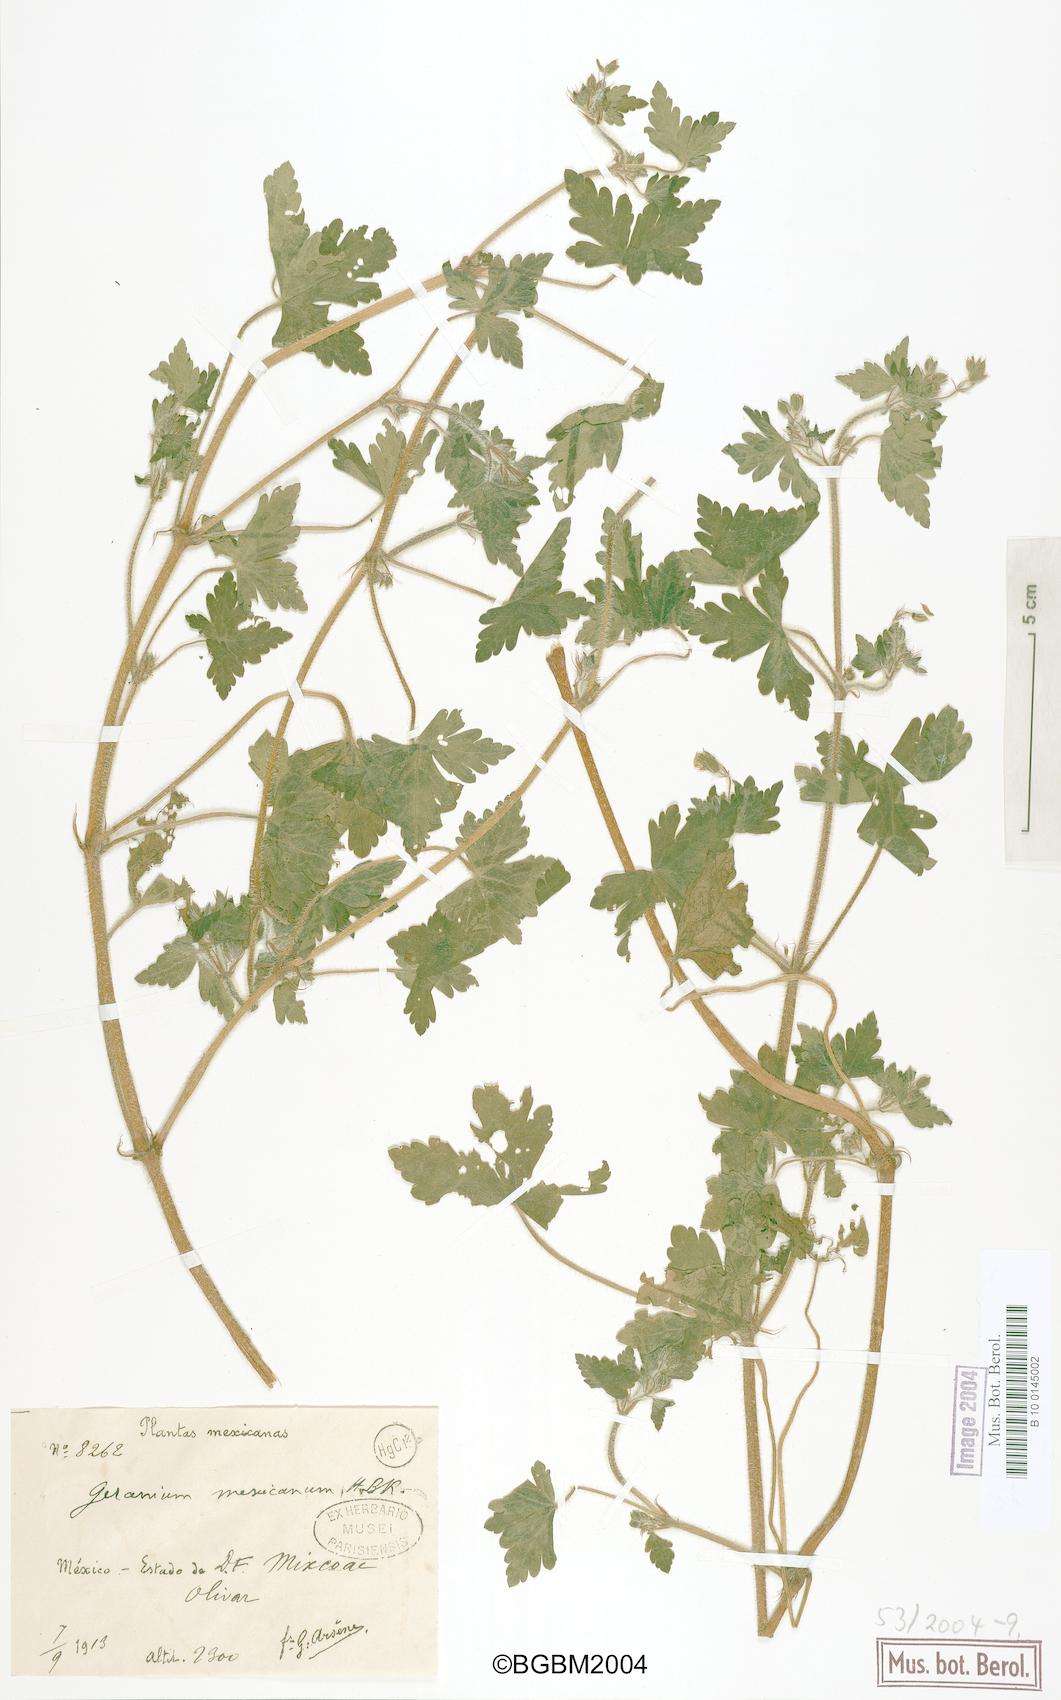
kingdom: Plantae
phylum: Tracheophyta
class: Magnoliopsida
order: Geraniales
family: Geraniaceae
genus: Geranium
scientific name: Geranium mexicanum
